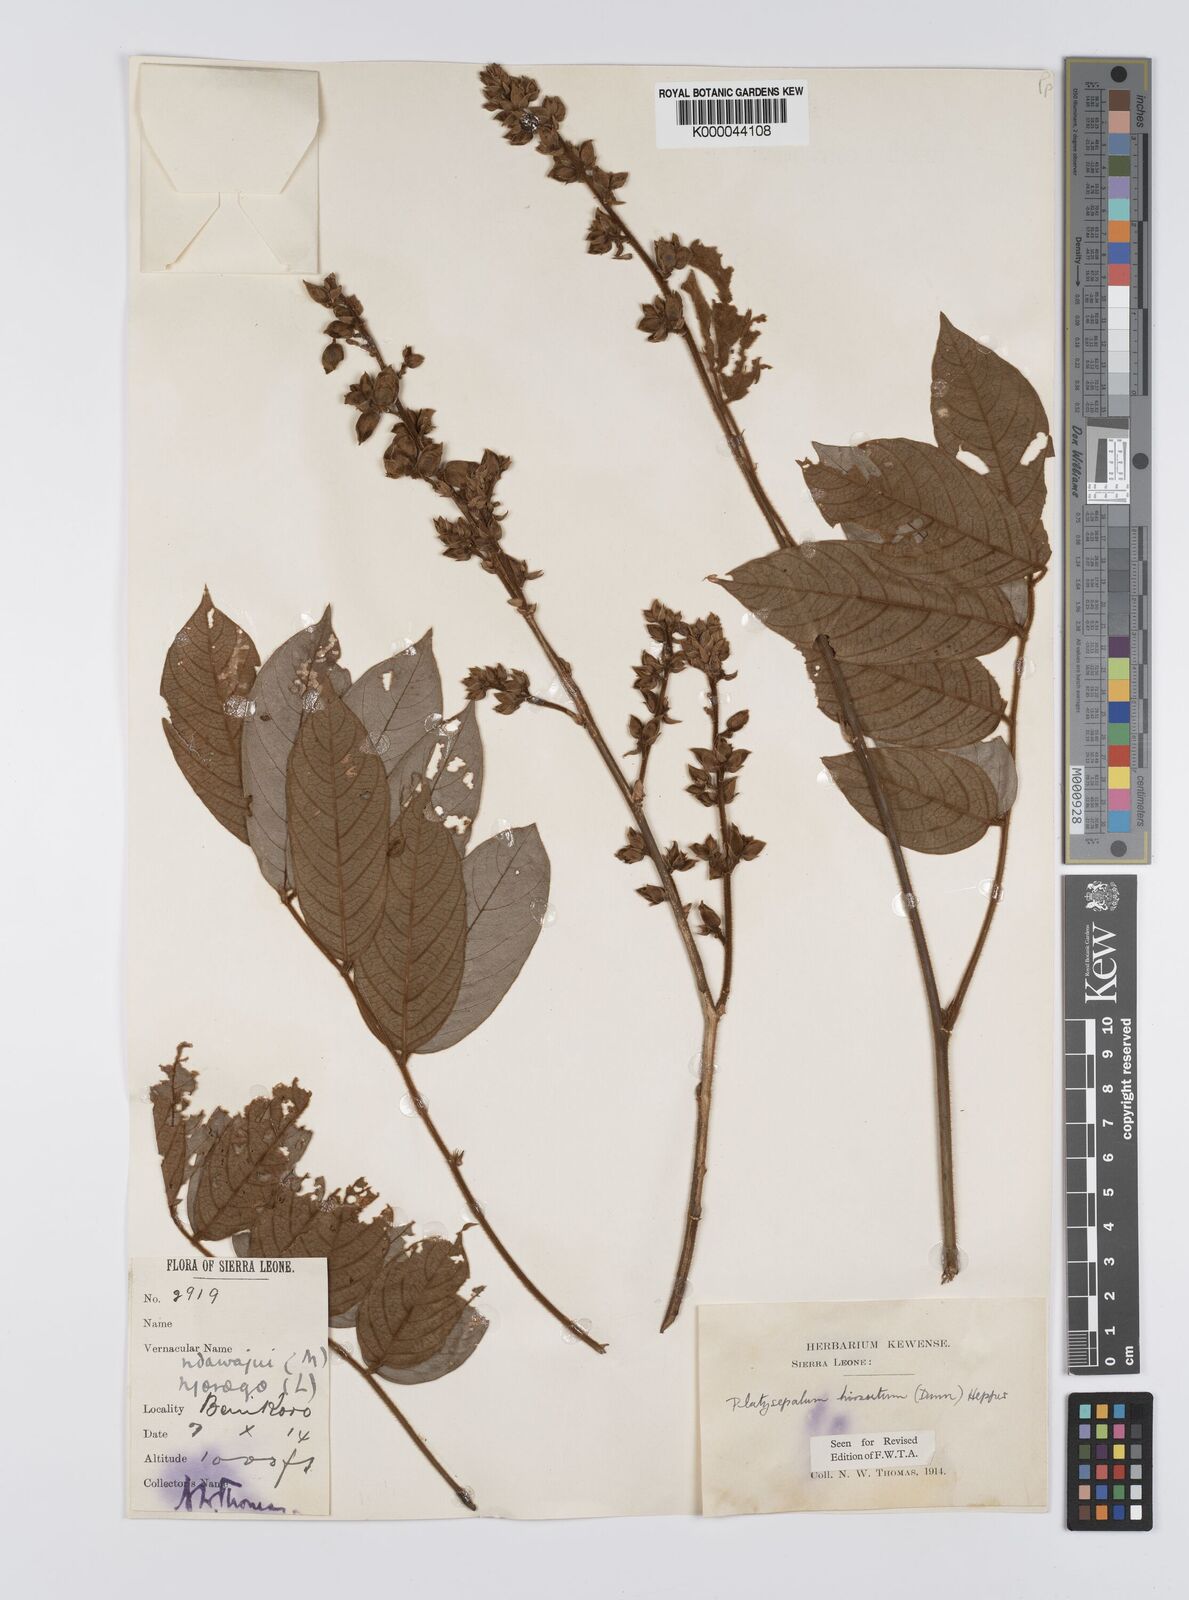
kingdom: Plantae
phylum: Tracheophyta
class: Magnoliopsida
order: Fabales
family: Fabaceae
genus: Platysepalum
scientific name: Platysepalum hirsutum
